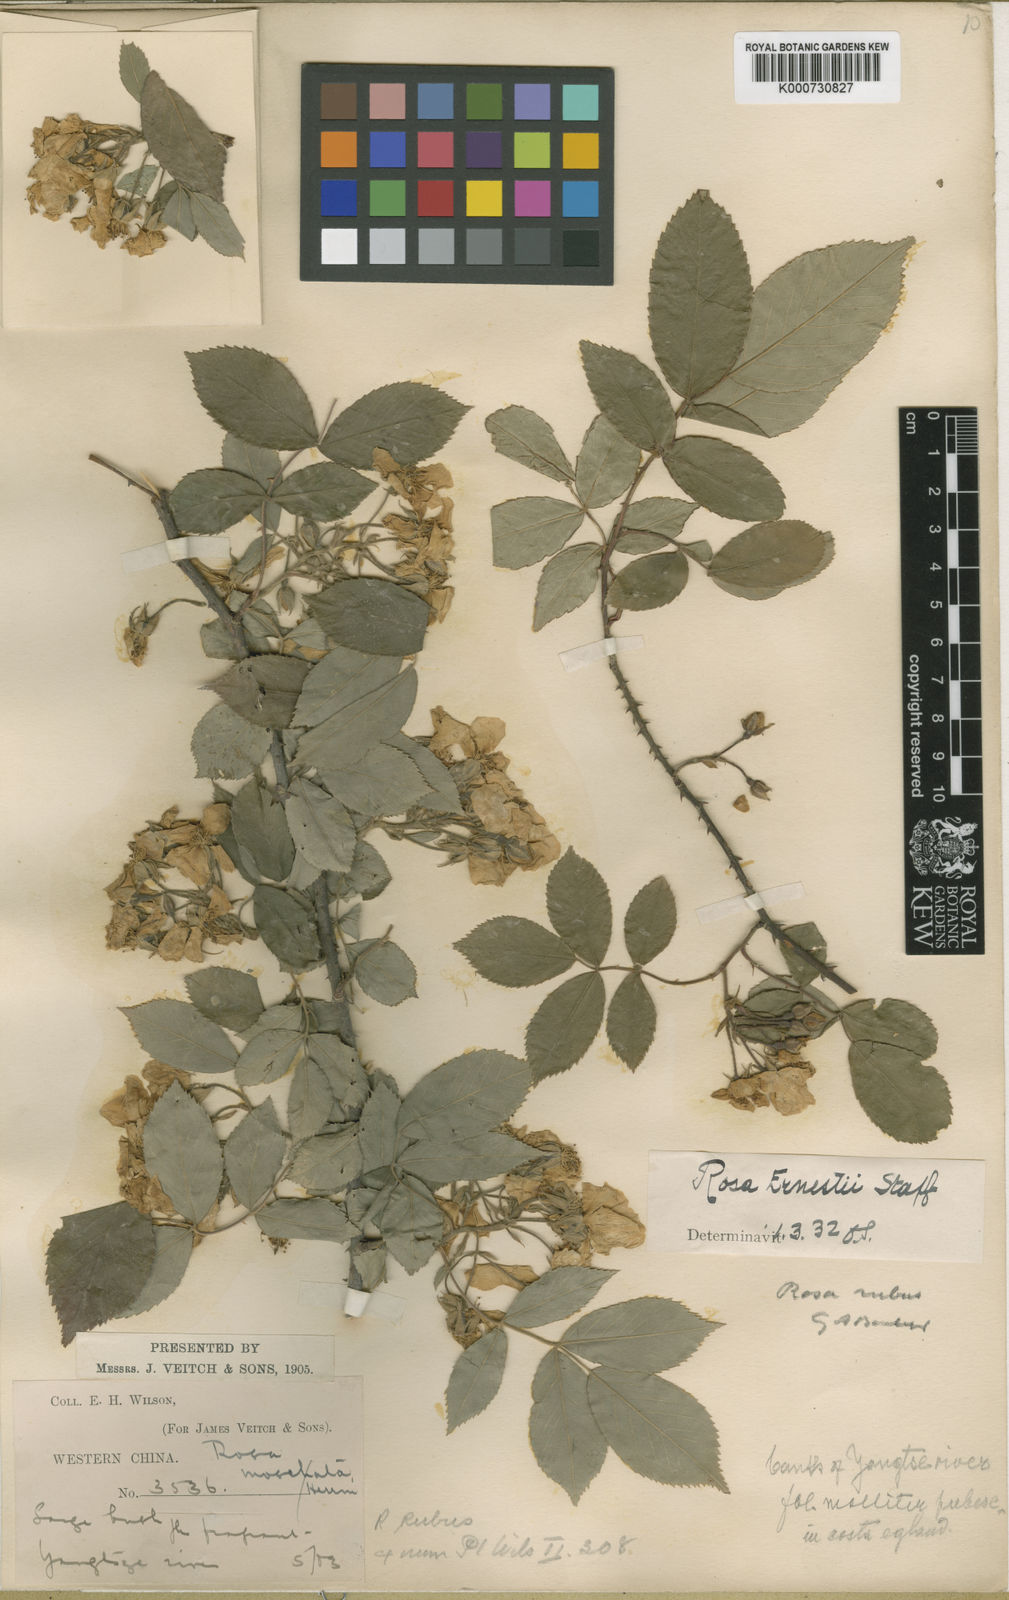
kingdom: Plantae
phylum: Tracheophyta
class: Magnoliopsida
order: Rosales
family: Rosaceae
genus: Rosa
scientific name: Rosa rubus
